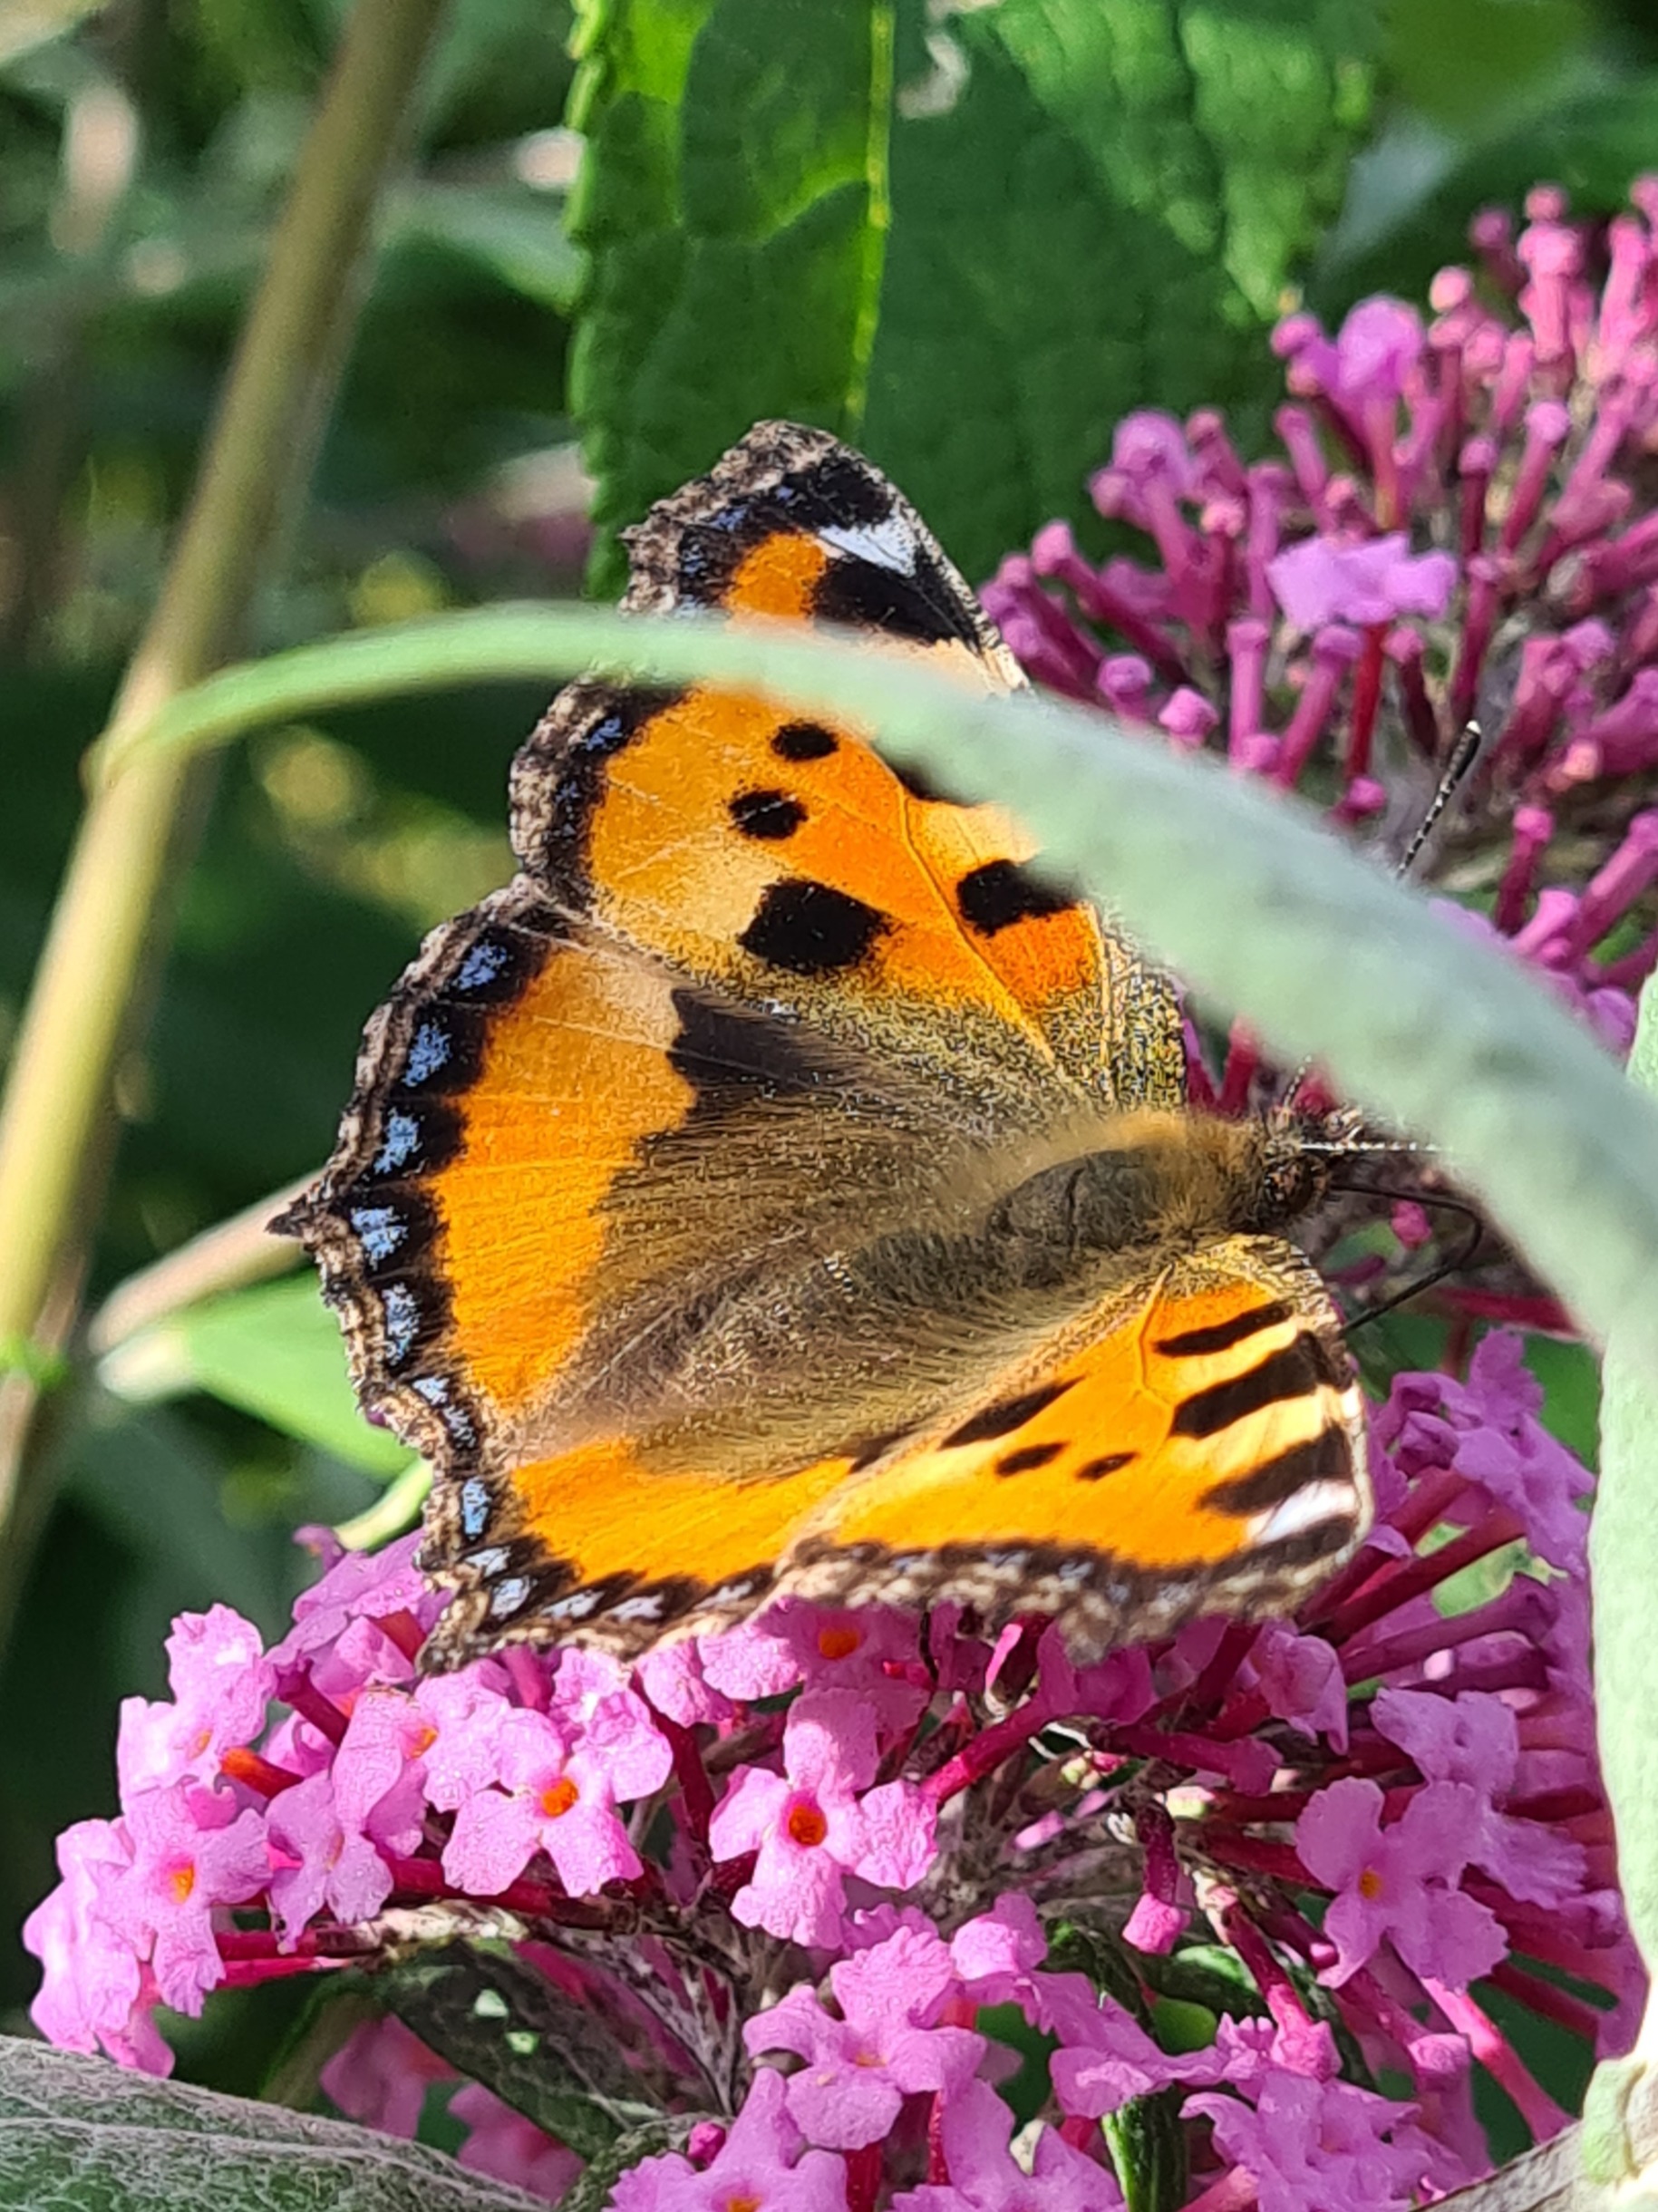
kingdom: Animalia
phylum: Arthropoda
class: Insecta
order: Lepidoptera
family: Nymphalidae
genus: Aglais
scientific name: Aglais urticae
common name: Nældens takvinge
